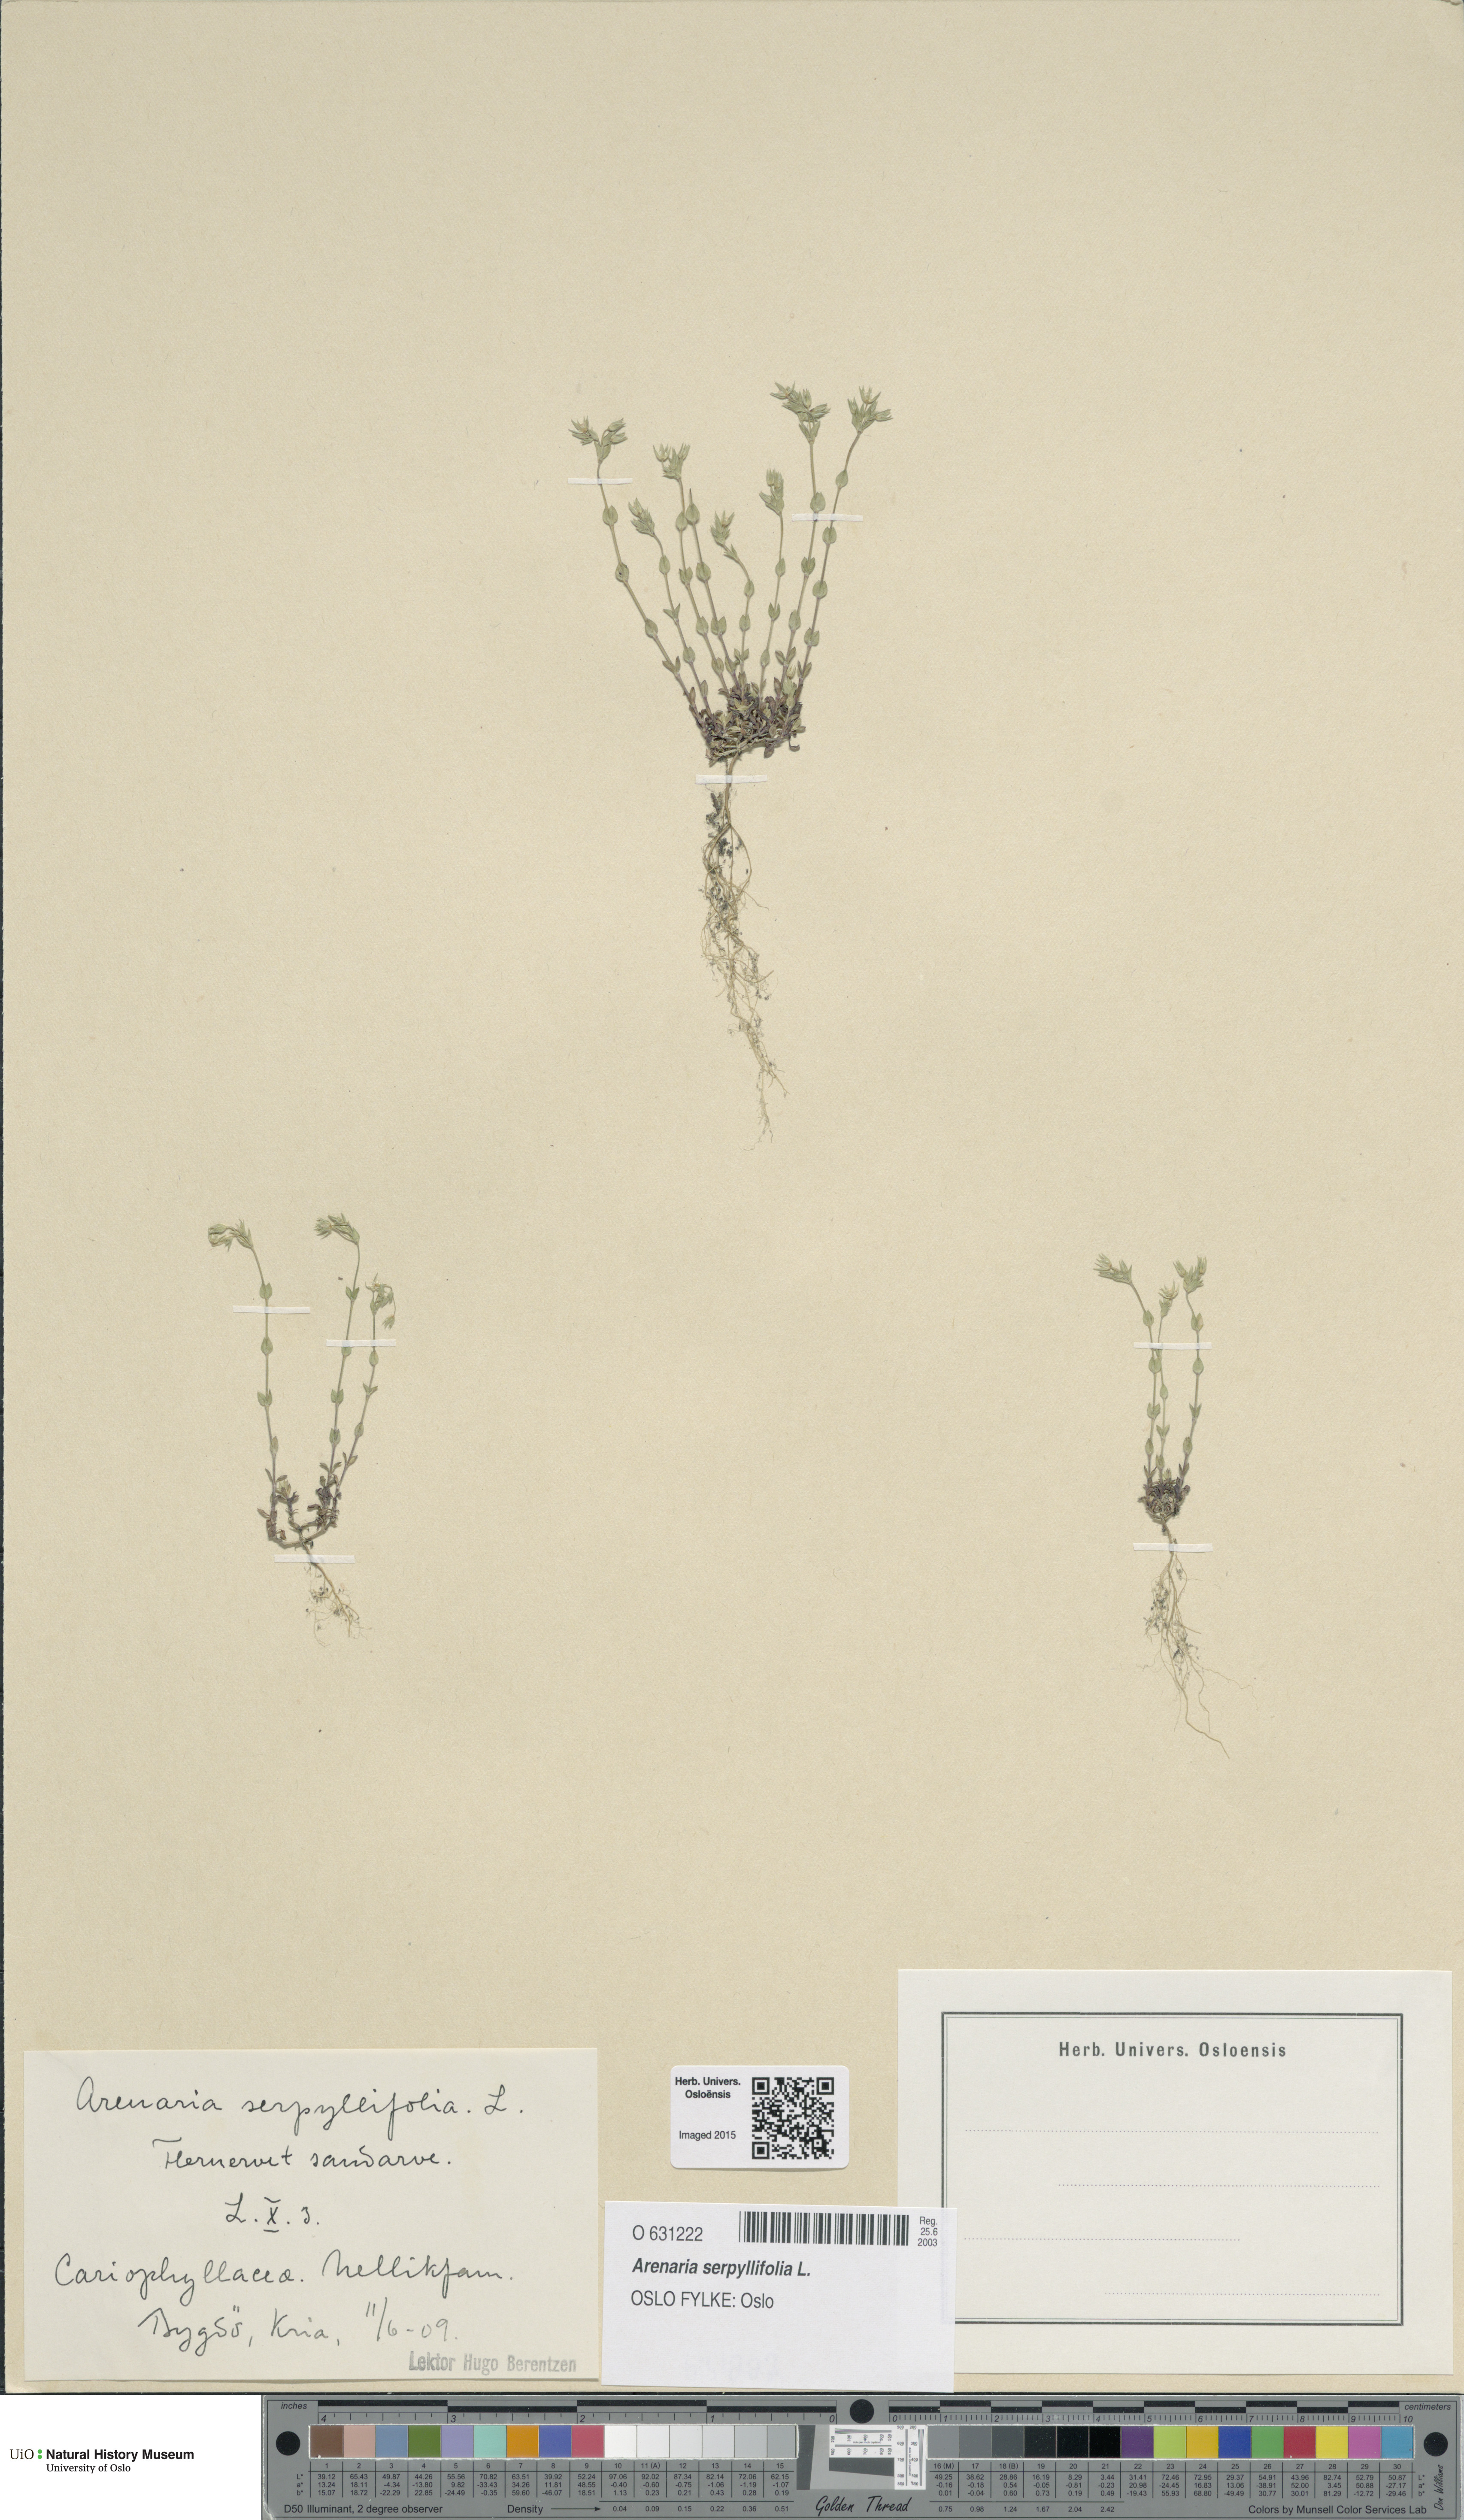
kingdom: Plantae
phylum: Tracheophyta
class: Magnoliopsida
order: Caryophyllales
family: Caryophyllaceae
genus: Arenaria
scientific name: Arenaria serpyllifolia
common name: Thyme-leaved sandwort
